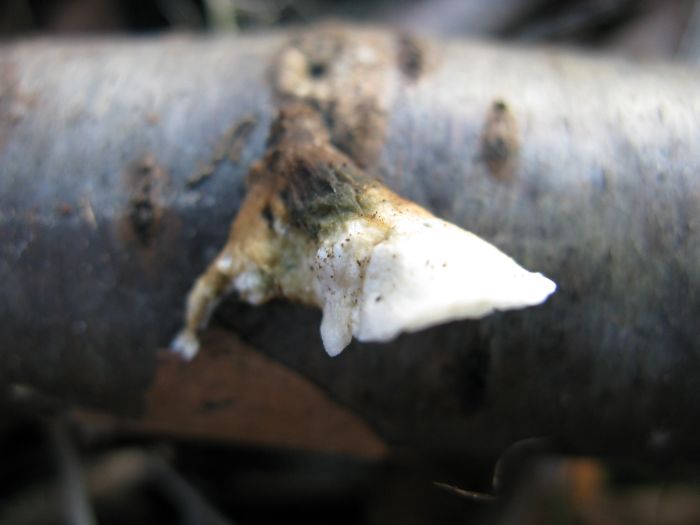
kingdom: Fungi
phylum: Basidiomycota
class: Agaricomycetes
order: Amylocorticiales
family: Amylocorticiaceae
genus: Plicaturopsis
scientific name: Plicaturopsis crispa
